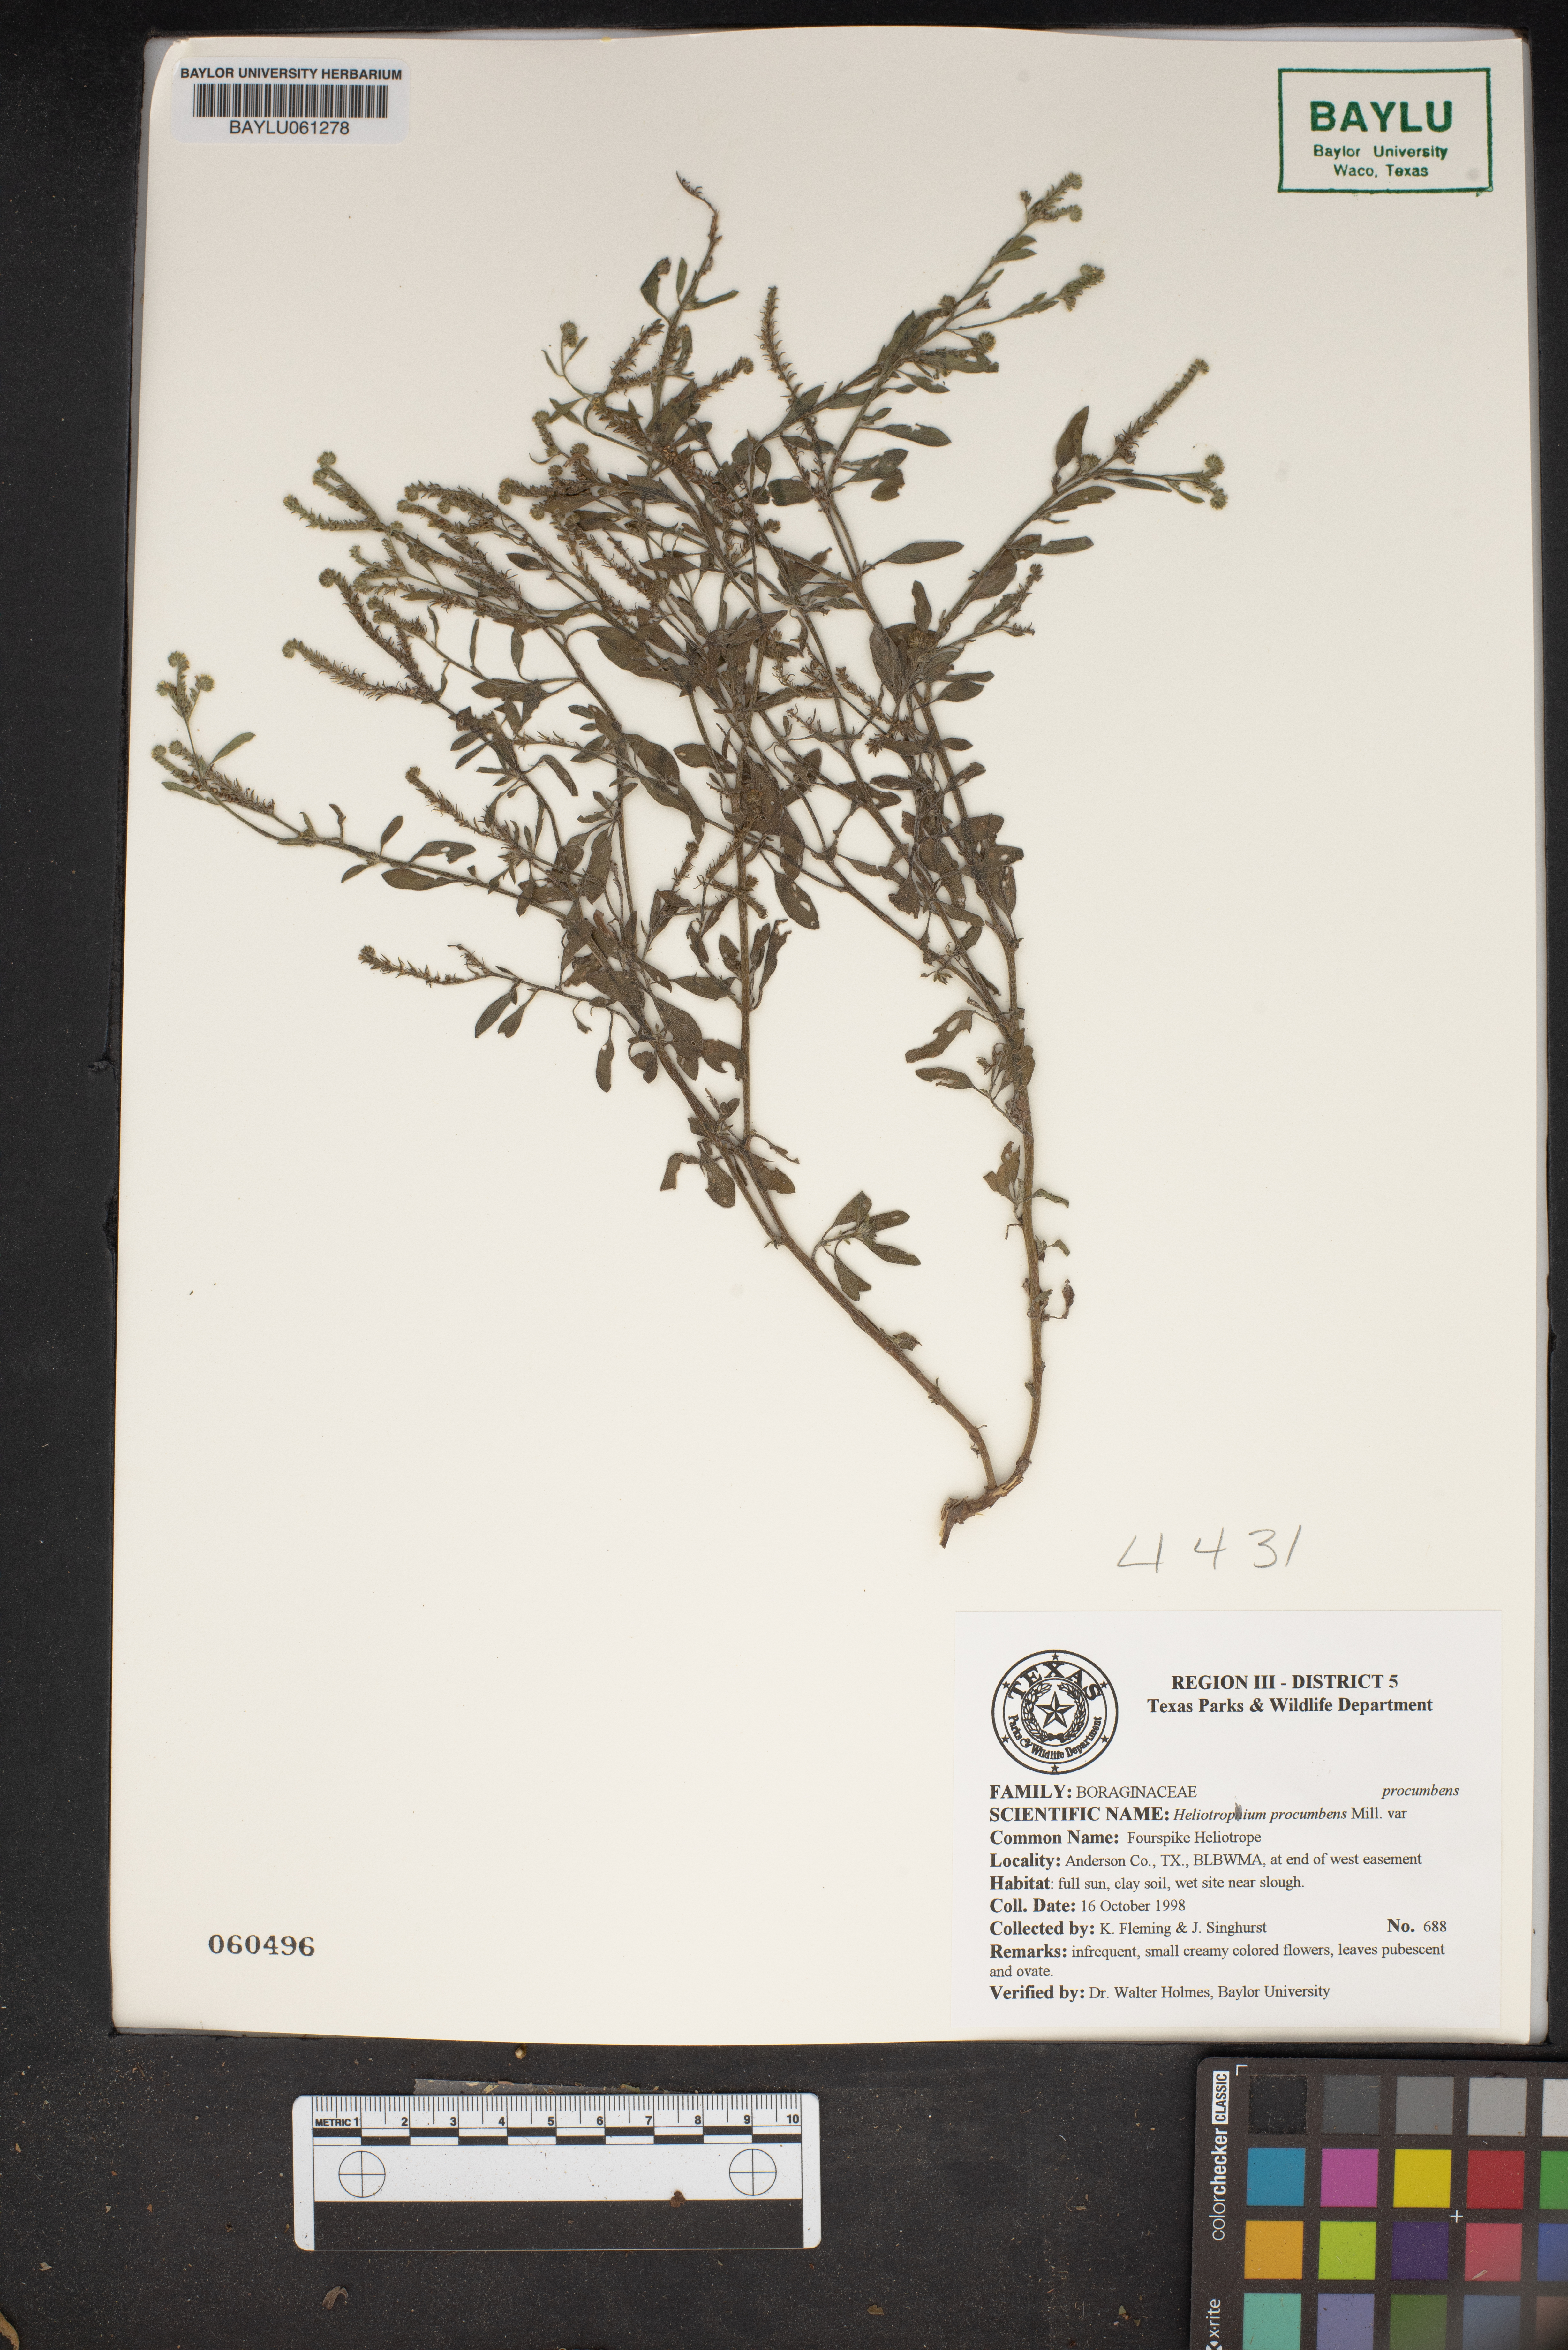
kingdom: Plantae
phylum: Tracheophyta
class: Magnoliopsida
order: Boraginales
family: Heliotropiaceae
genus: Euploca
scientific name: Euploca procumbens
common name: Fourspike heliotrope
